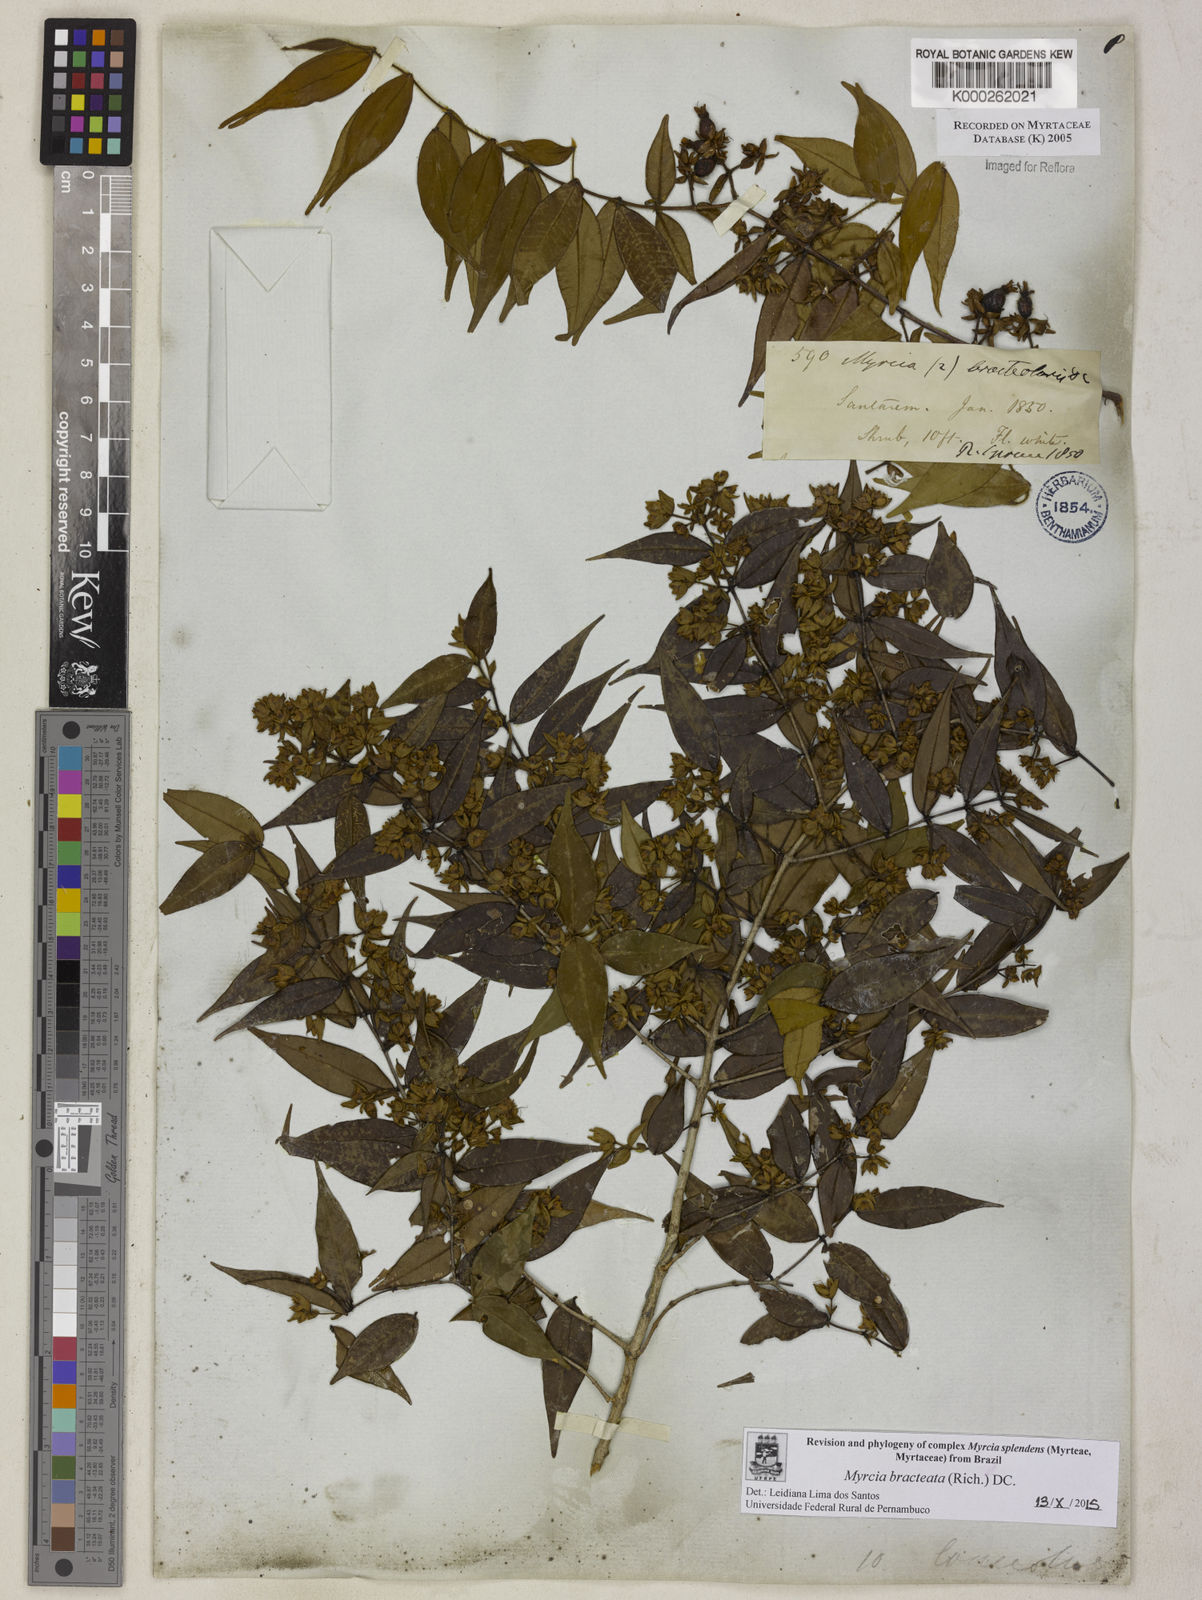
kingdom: Plantae
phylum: Tracheophyta
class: Magnoliopsida
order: Myrtales
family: Myrtaceae
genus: Myrcia
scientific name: Myrcia bracteata
